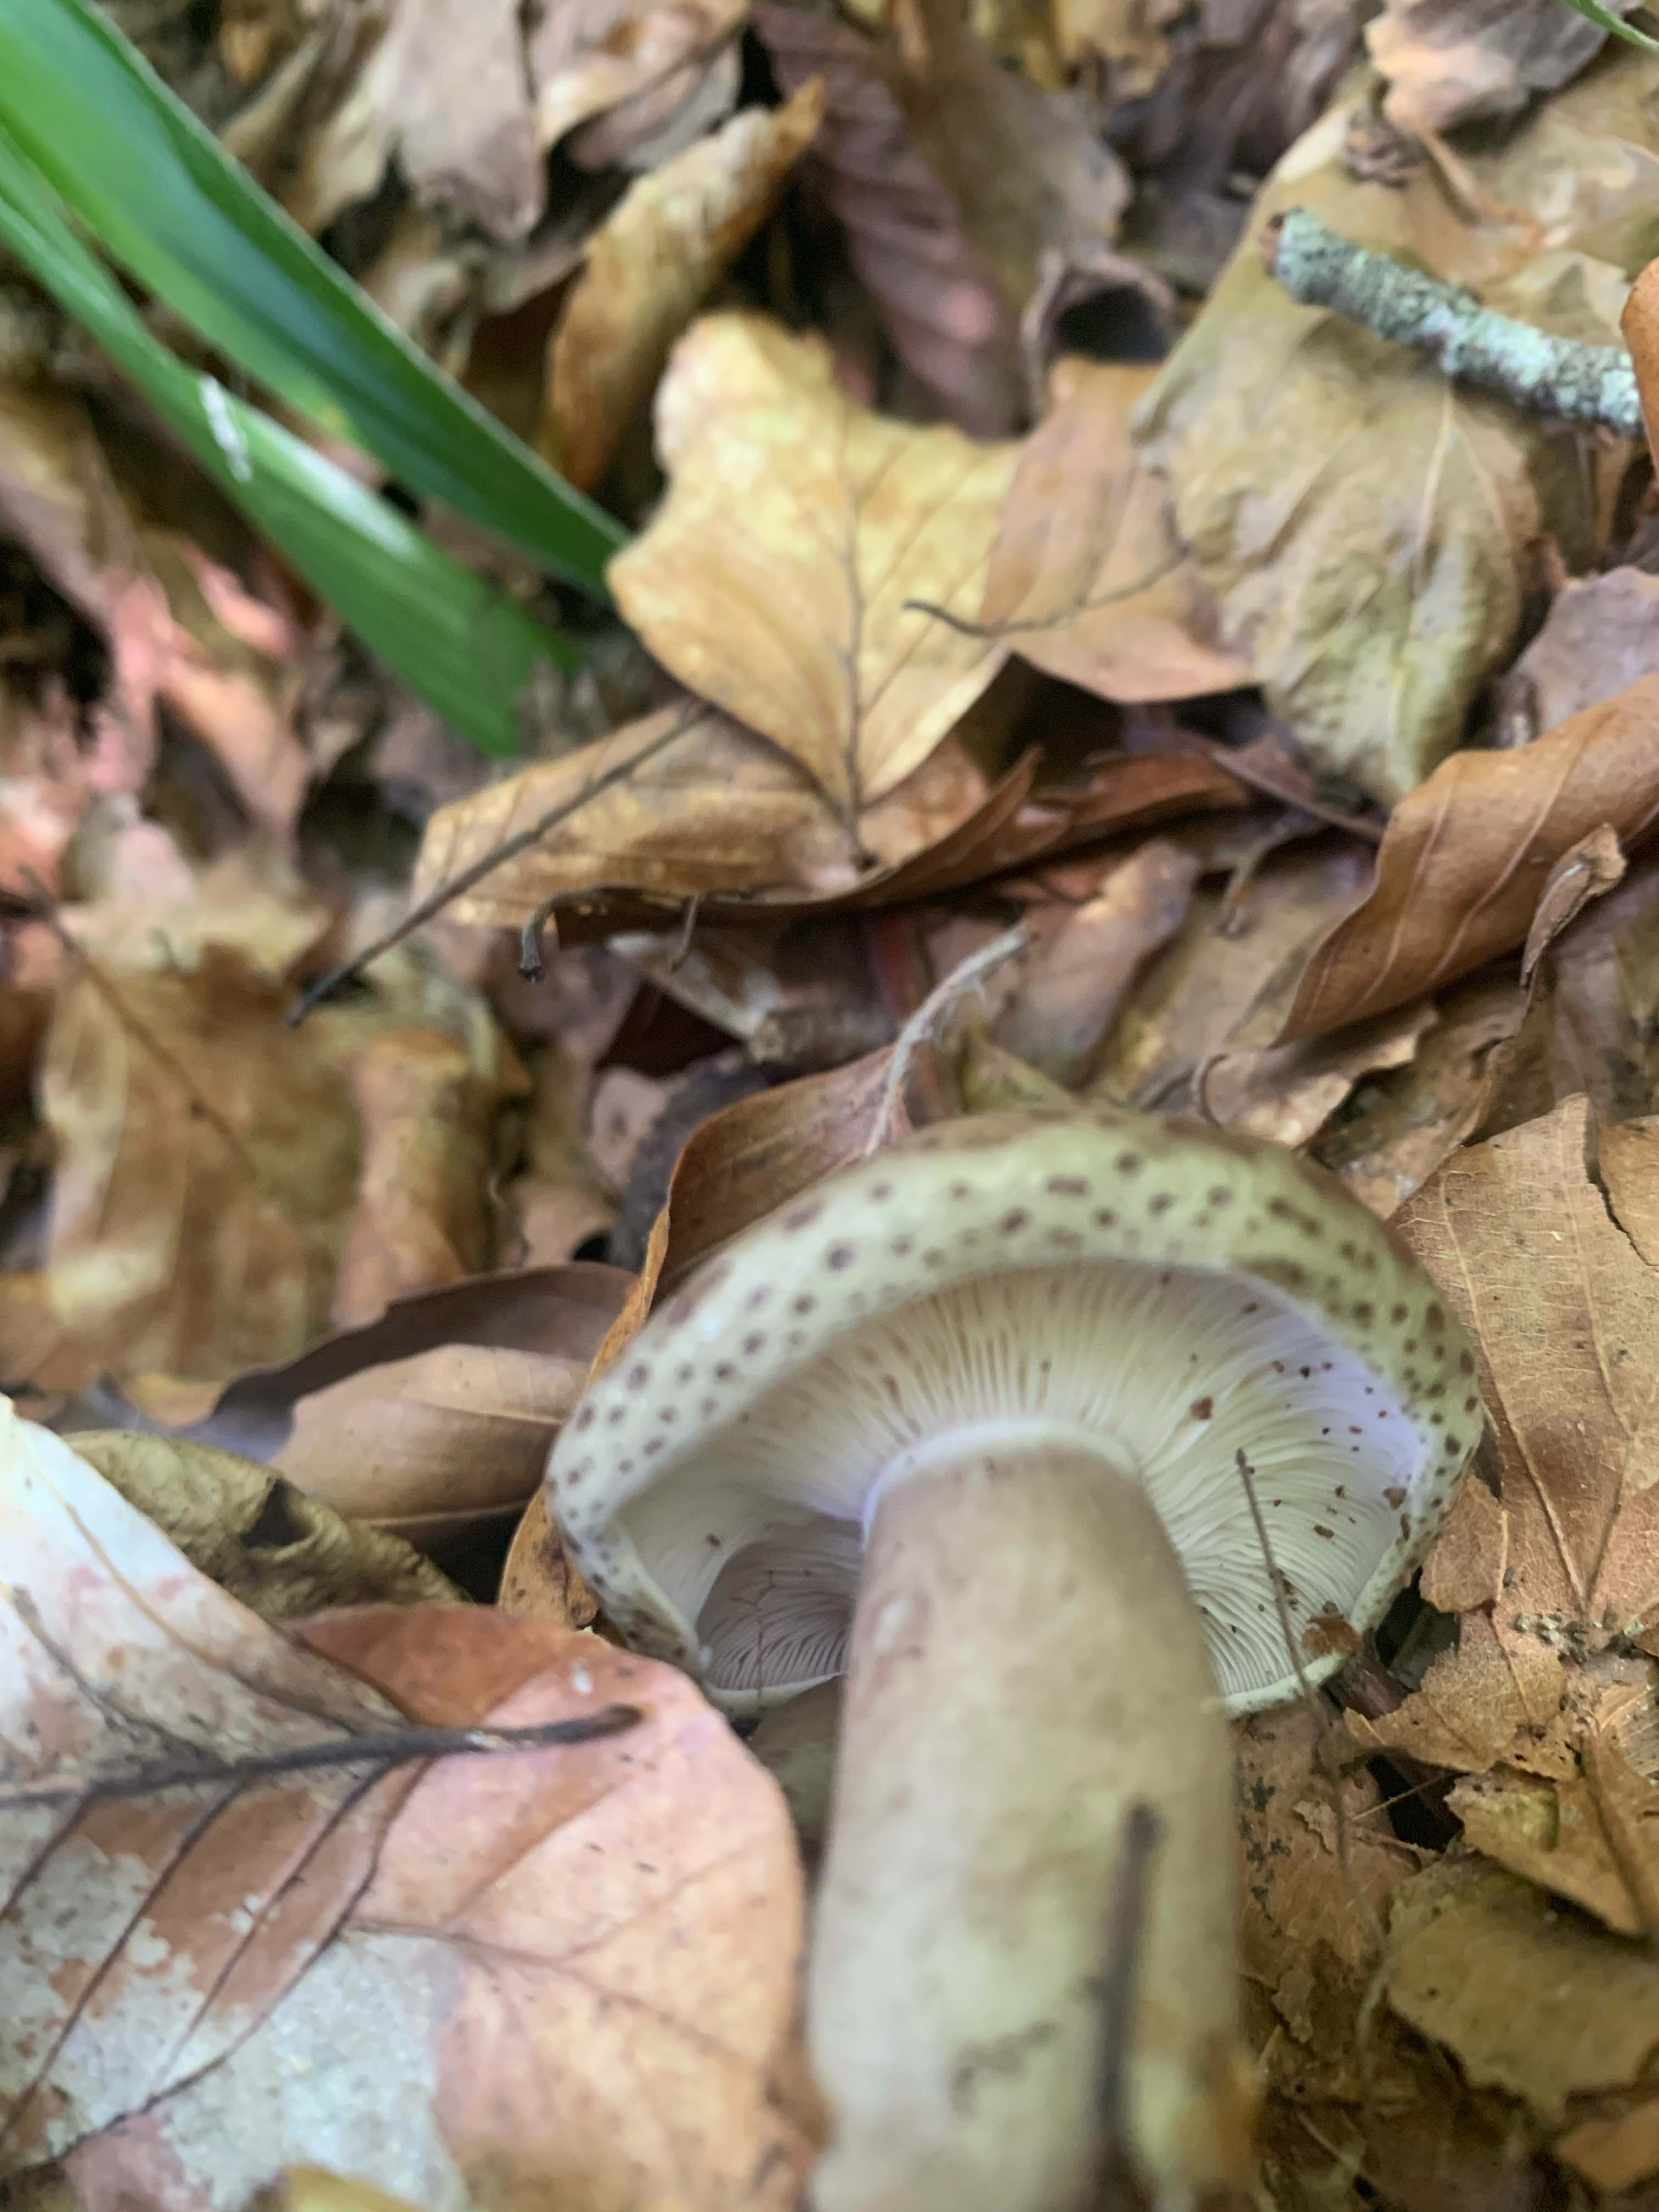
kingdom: Fungi
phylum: Basidiomycota
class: Agaricomycetes
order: Russulales
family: Russulaceae
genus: Lactarius
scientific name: Lactarius blennius
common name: dråbeplettet mælkehat
